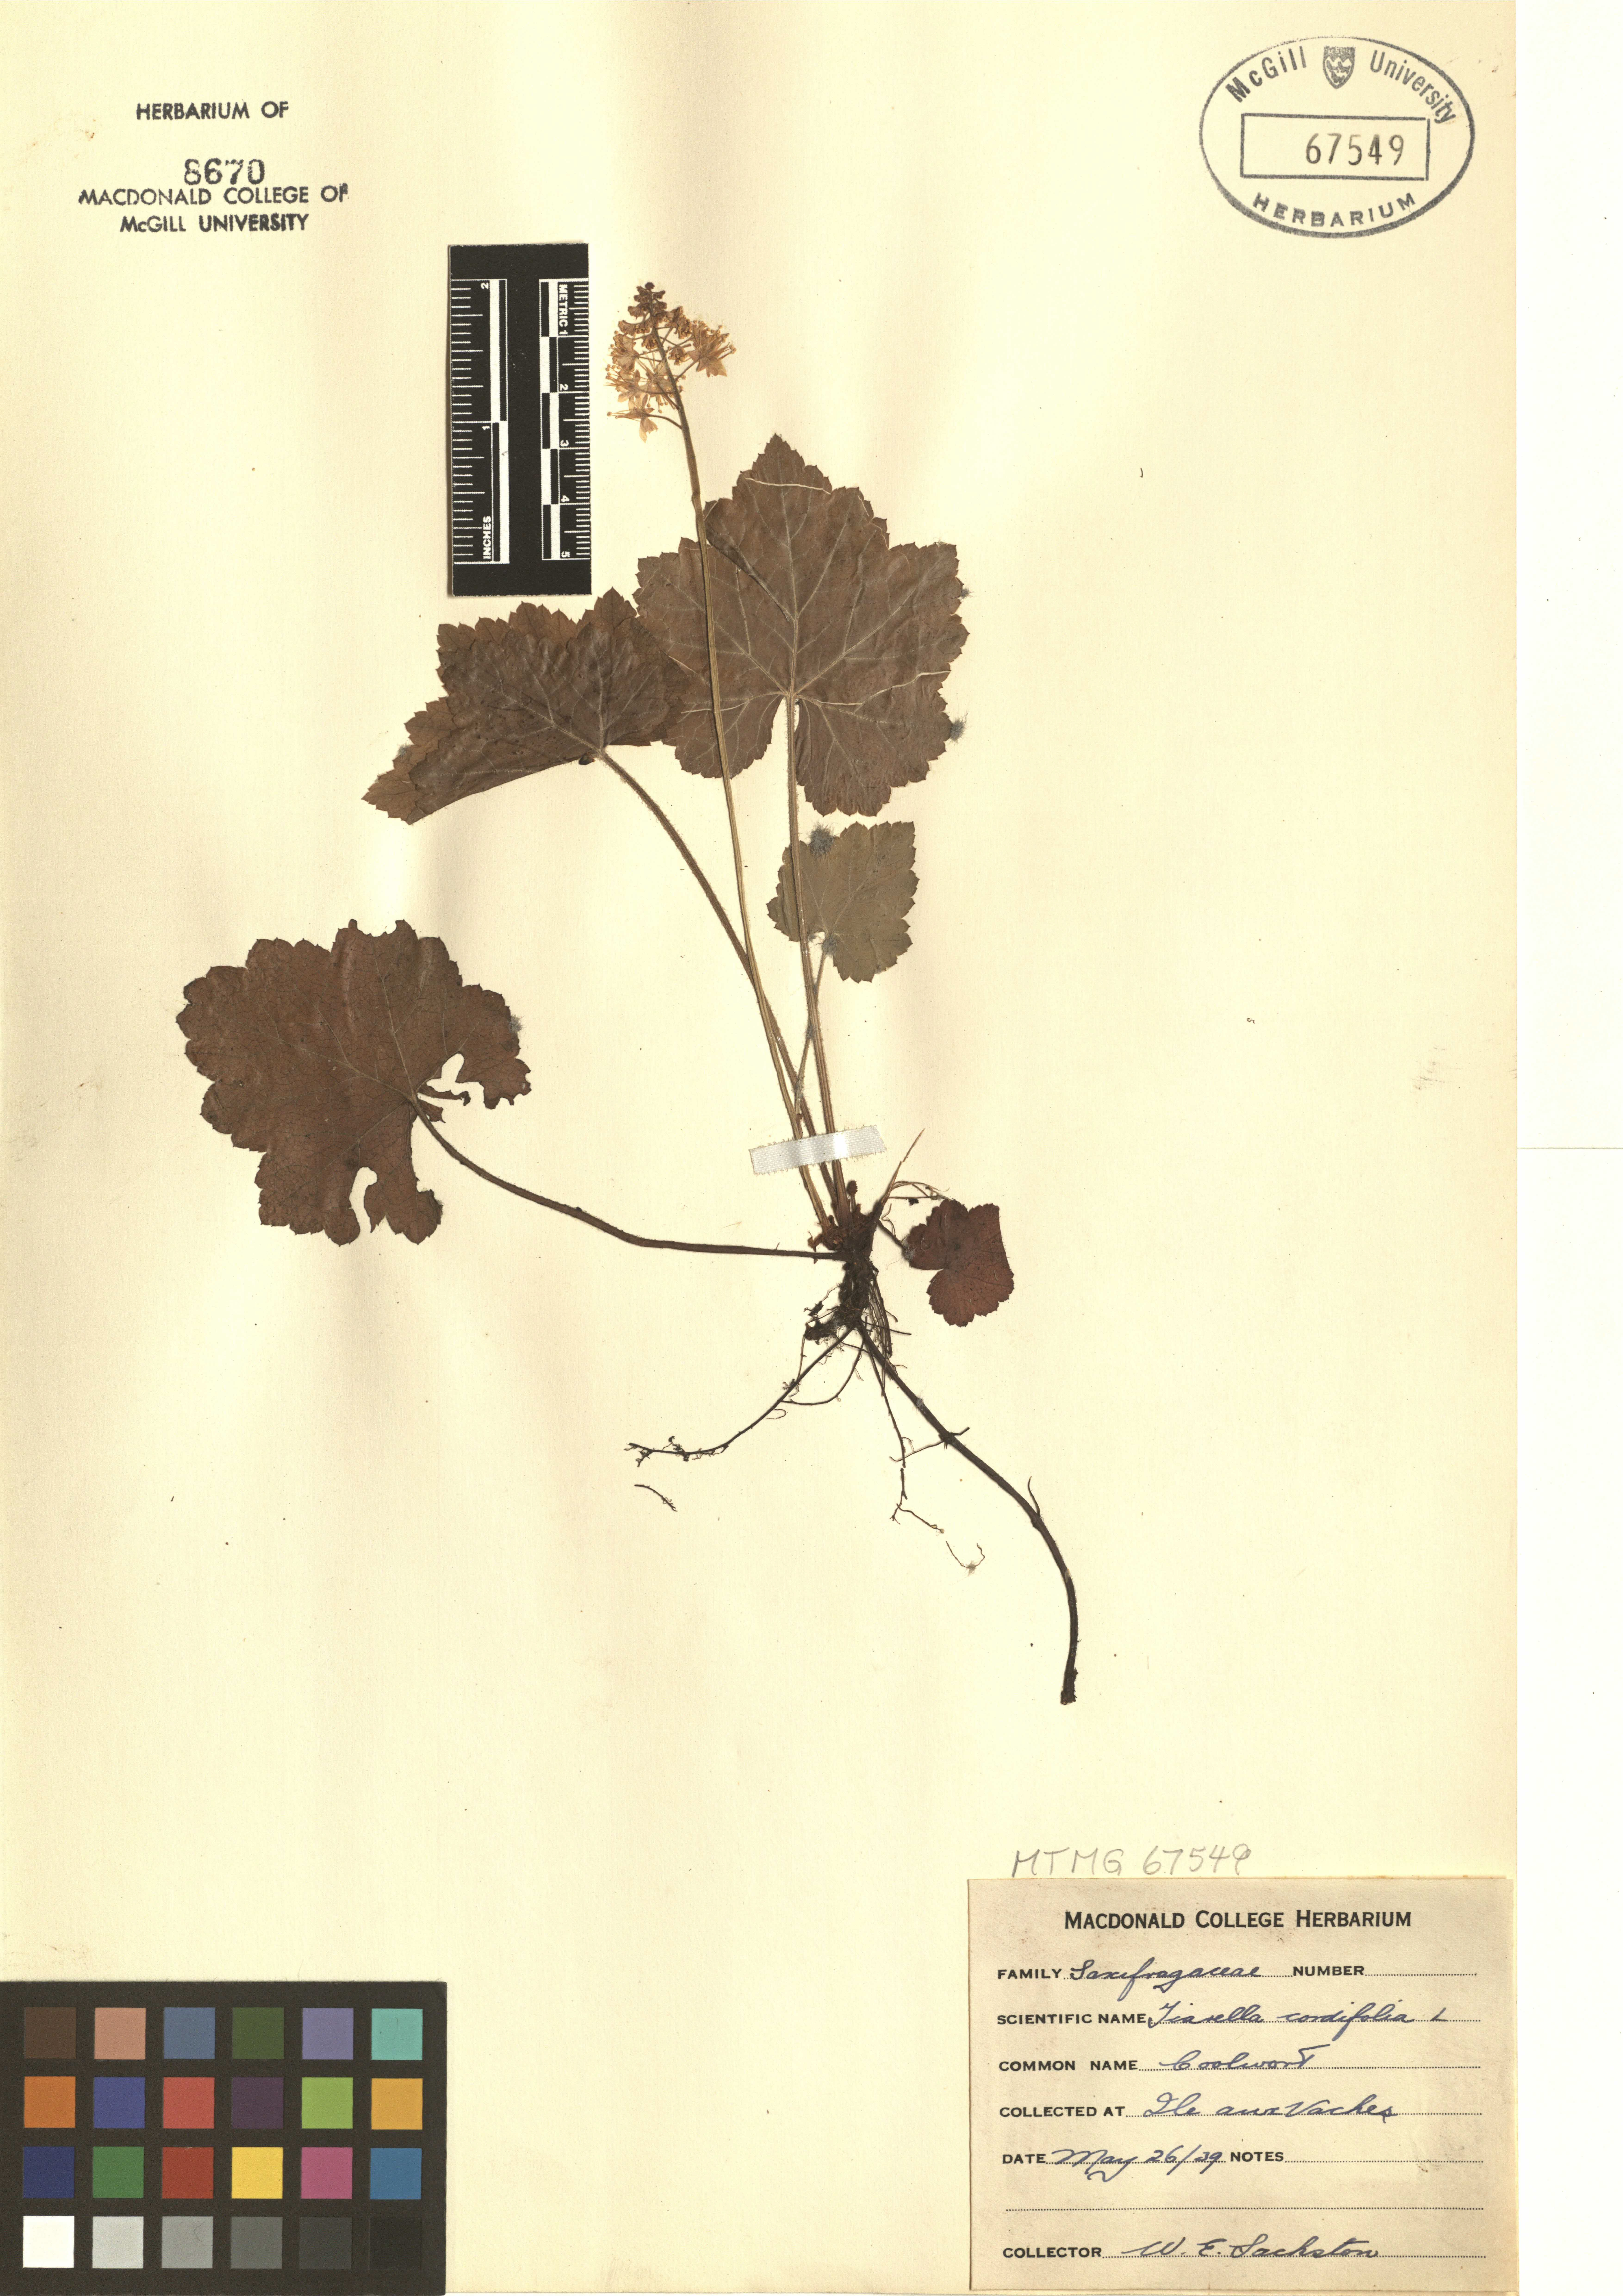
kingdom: Plantae
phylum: Tracheophyta
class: Magnoliopsida
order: Saxifragales
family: Saxifragaceae
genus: Tiarella
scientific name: Tiarella cordifolia
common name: Foamflower
